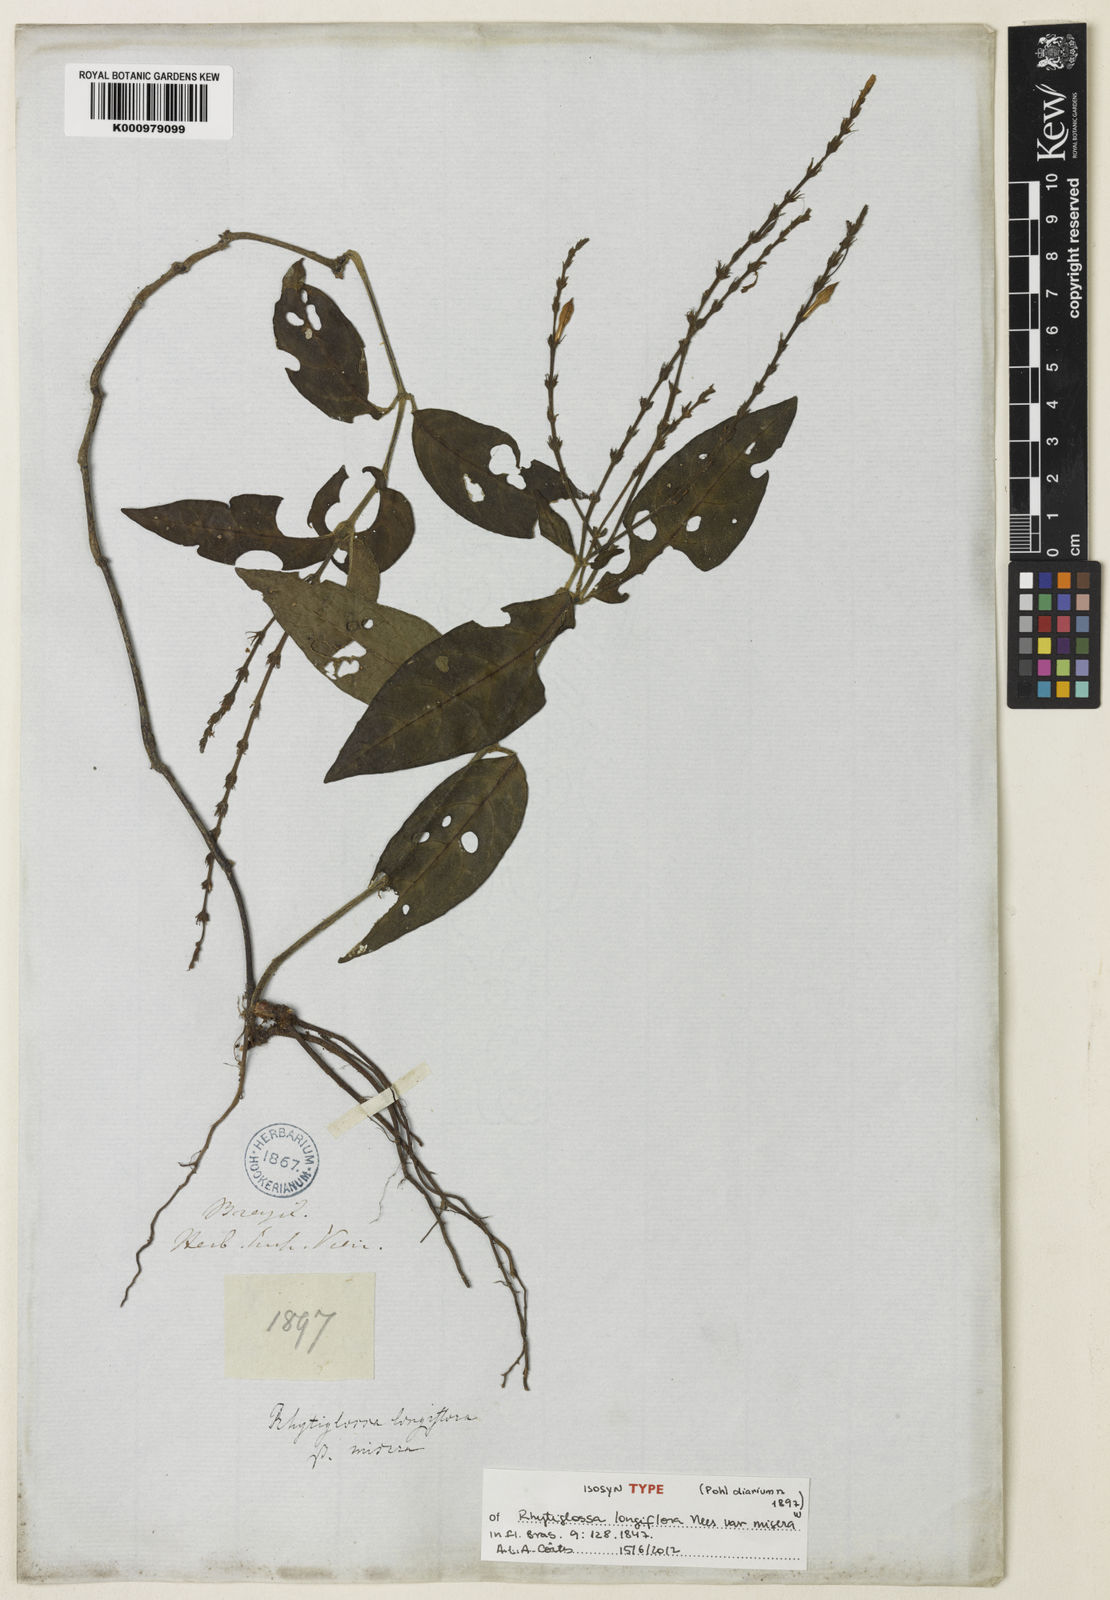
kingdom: Plantae
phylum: Tracheophyta
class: Magnoliopsida
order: Lamiales
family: Acanthaceae
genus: Dianthera
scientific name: Dianthera
